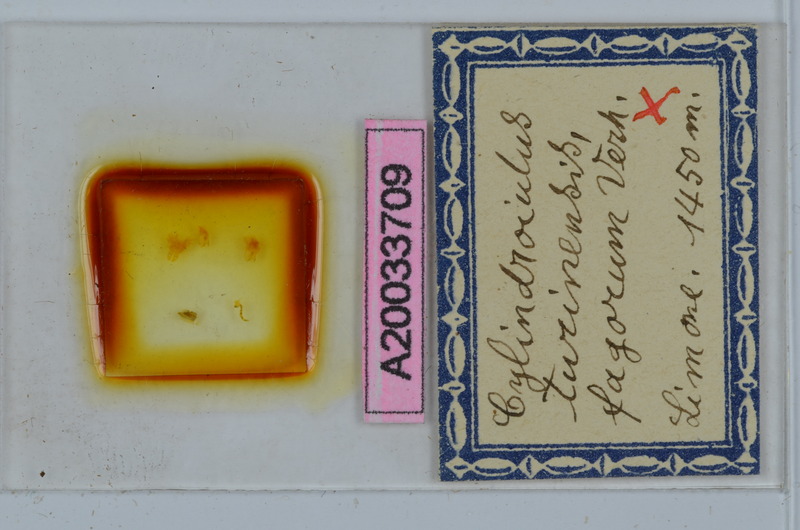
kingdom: Animalia
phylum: Arthropoda
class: Diplopoda
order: Julida
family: Julidae
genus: Cylindroiulus
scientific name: Cylindroiulus turinensis
